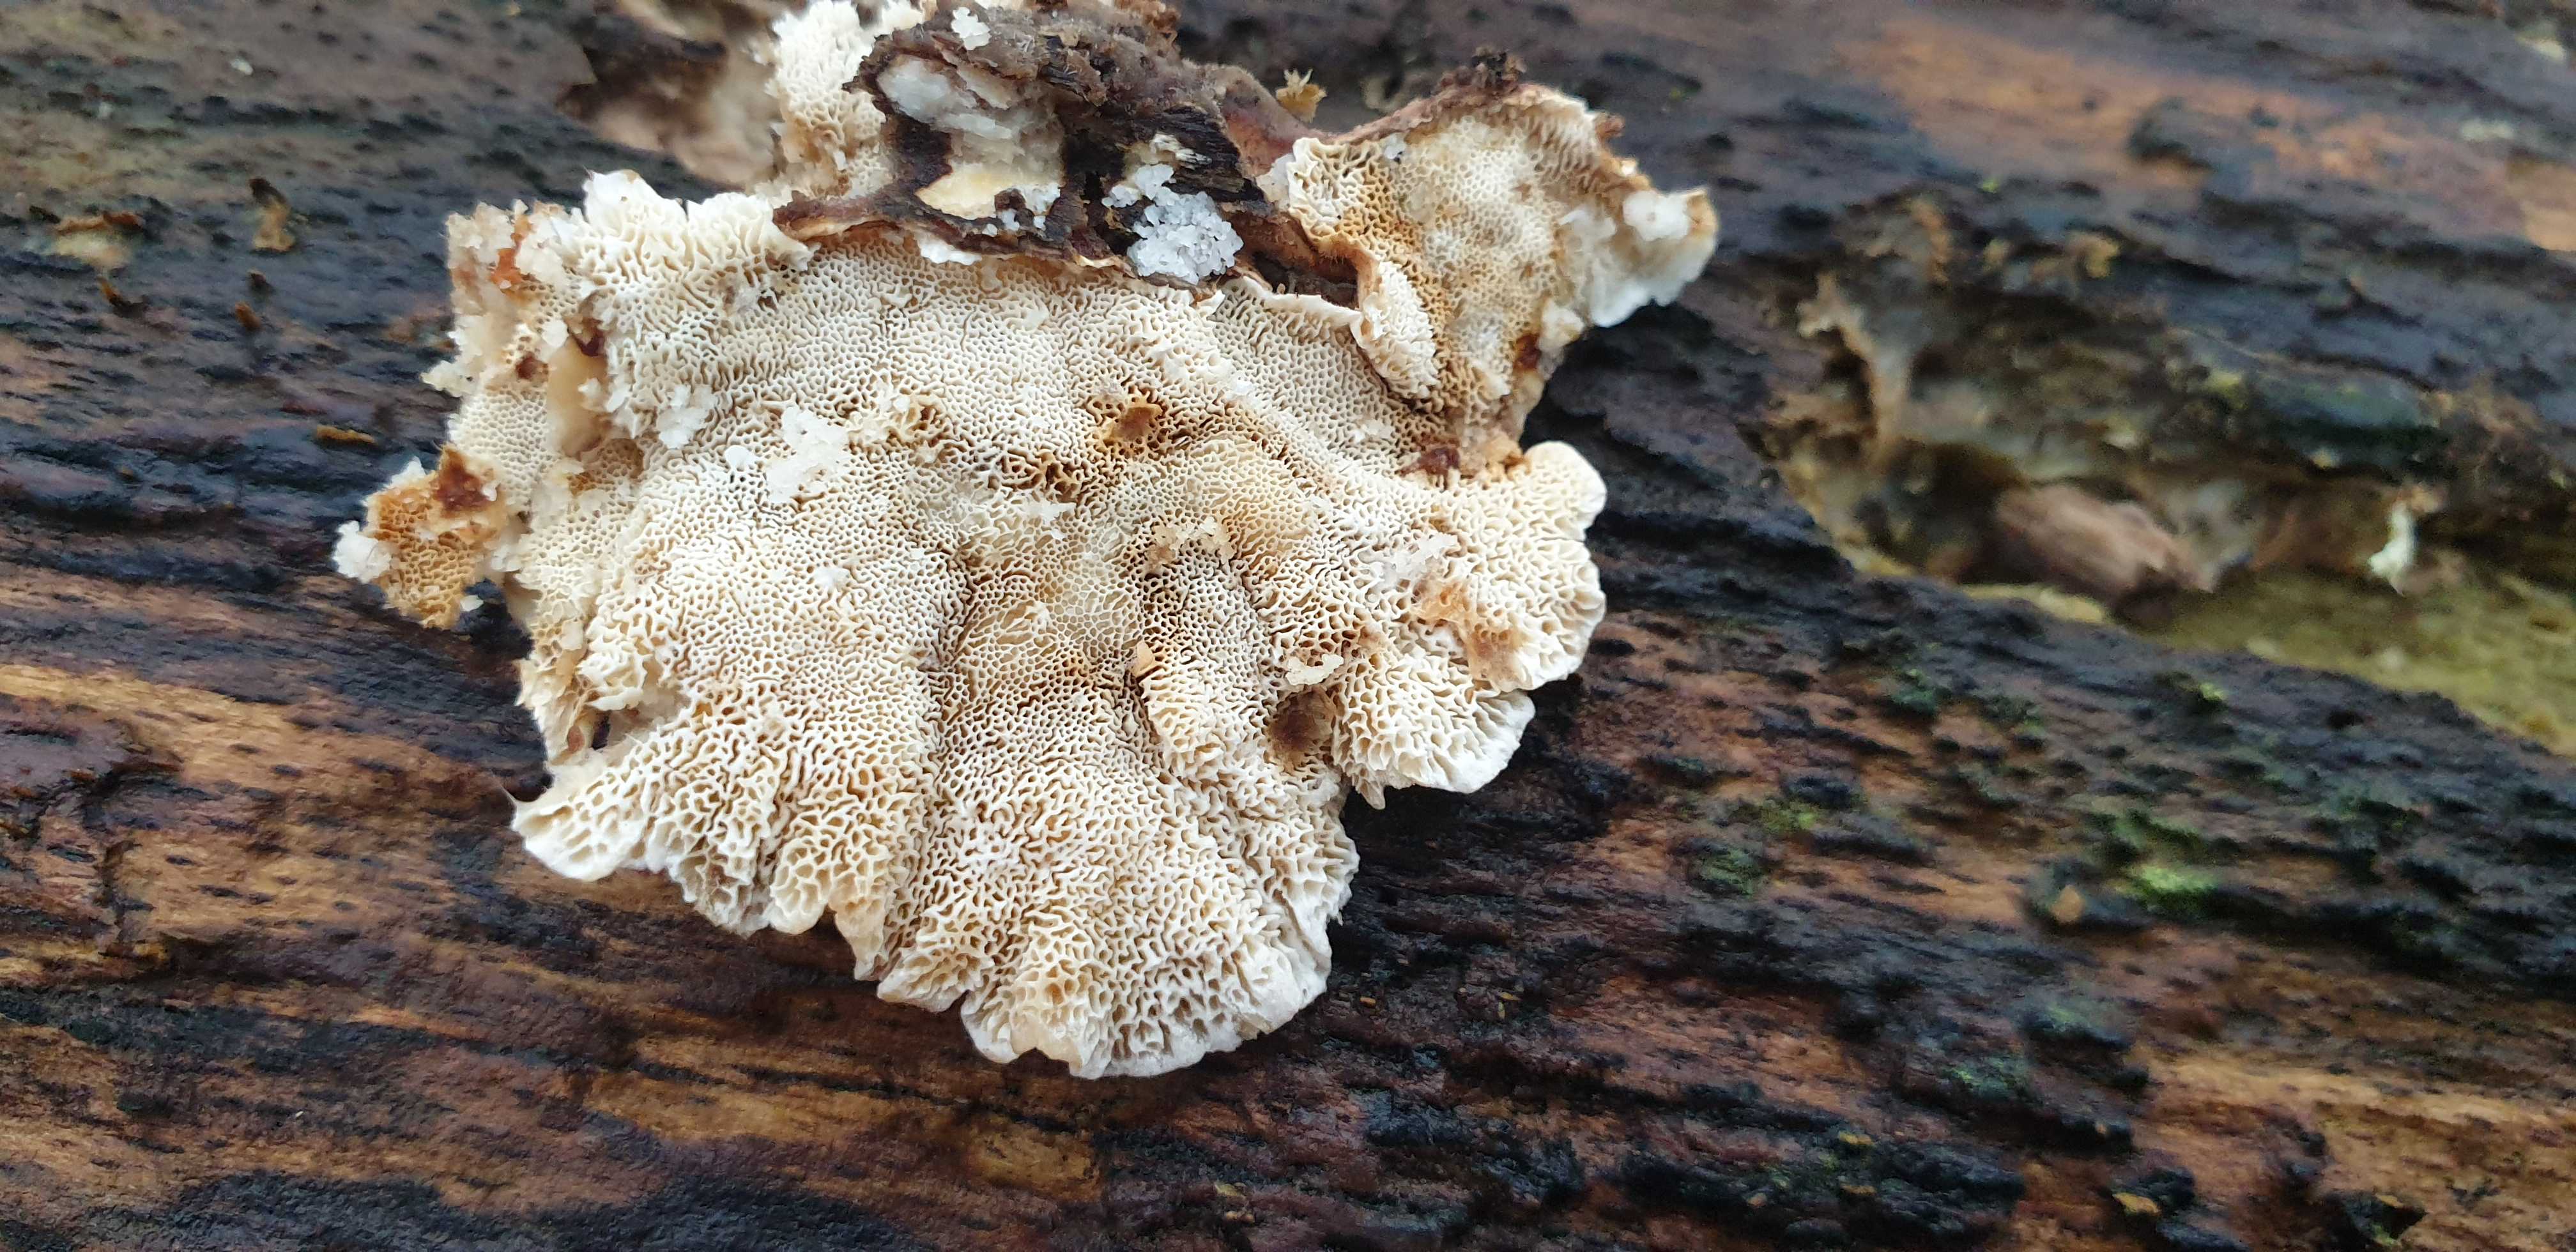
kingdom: Fungi
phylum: Basidiomycota
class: Agaricomycetes
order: Polyporales
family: Polyporaceae
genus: Trametes
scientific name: Trametes versicolor
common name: broget læderporesvamp
